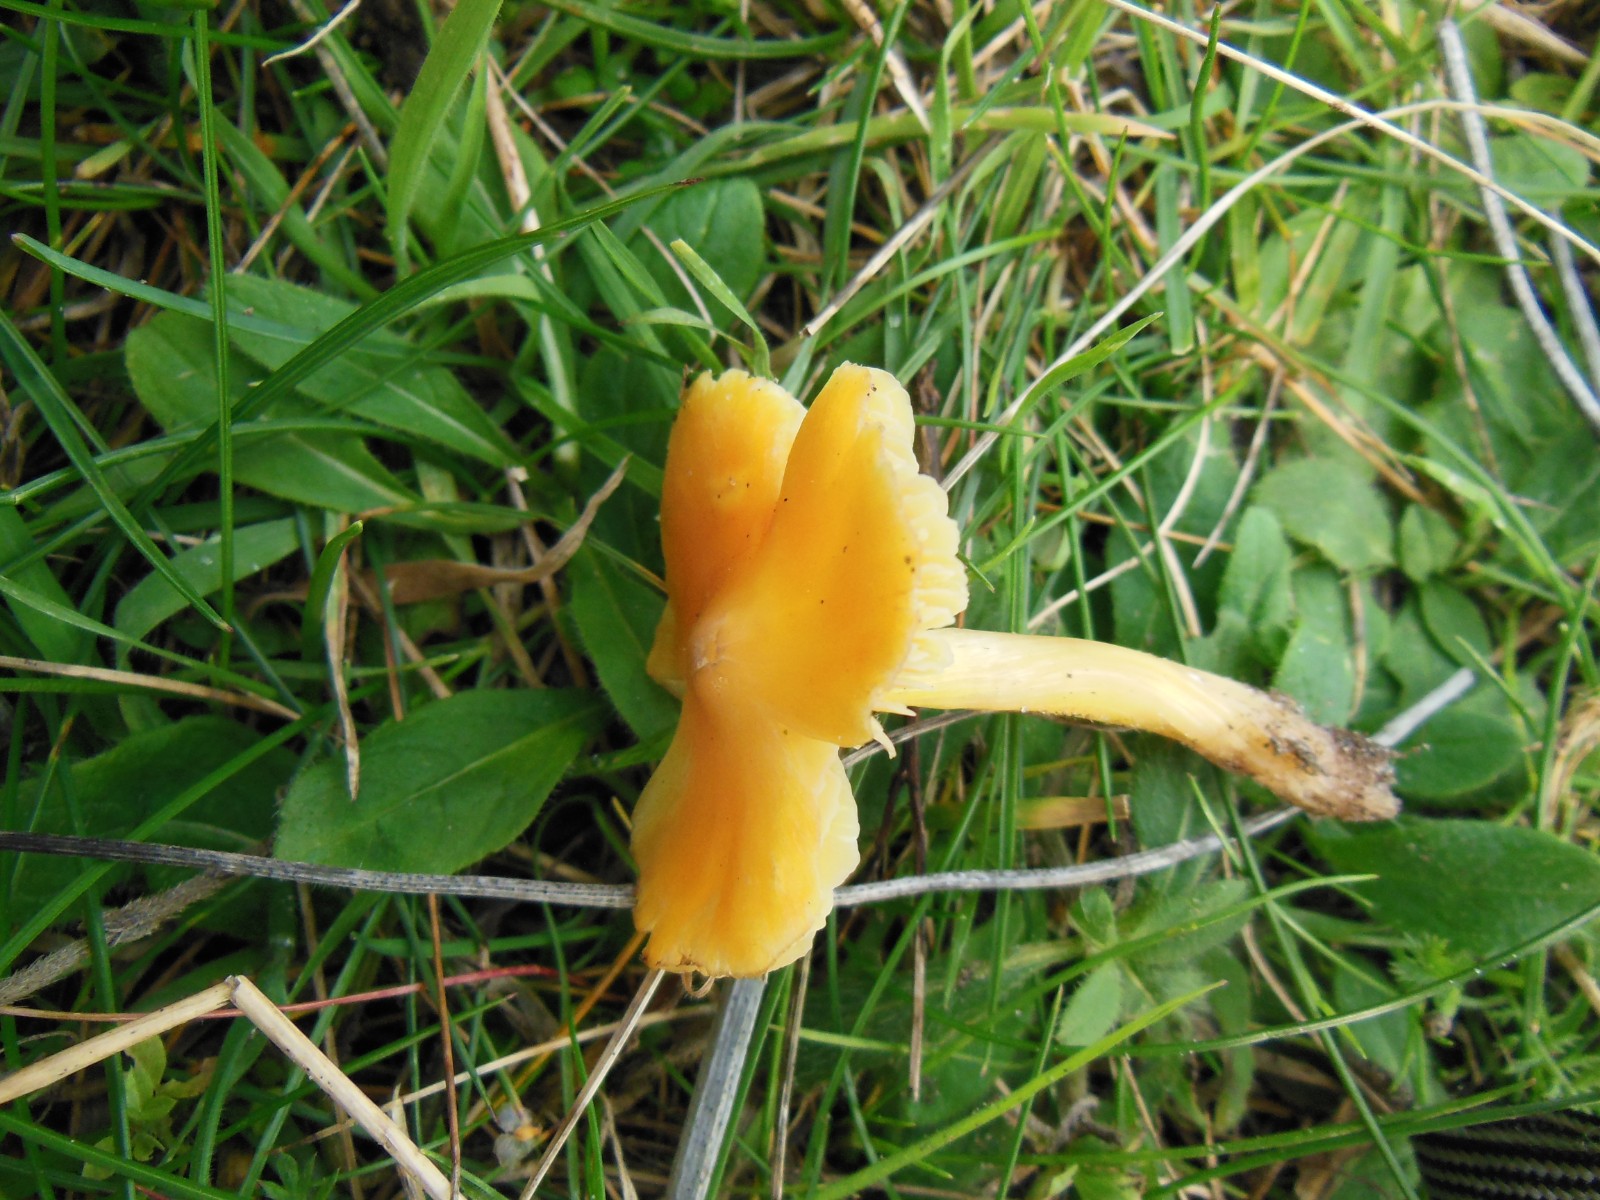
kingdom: Fungi
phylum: Basidiomycota
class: Agaricomycetes
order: Agaricales
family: Hygrophoraceae
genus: Hygrocybe
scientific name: Hygrocybe
